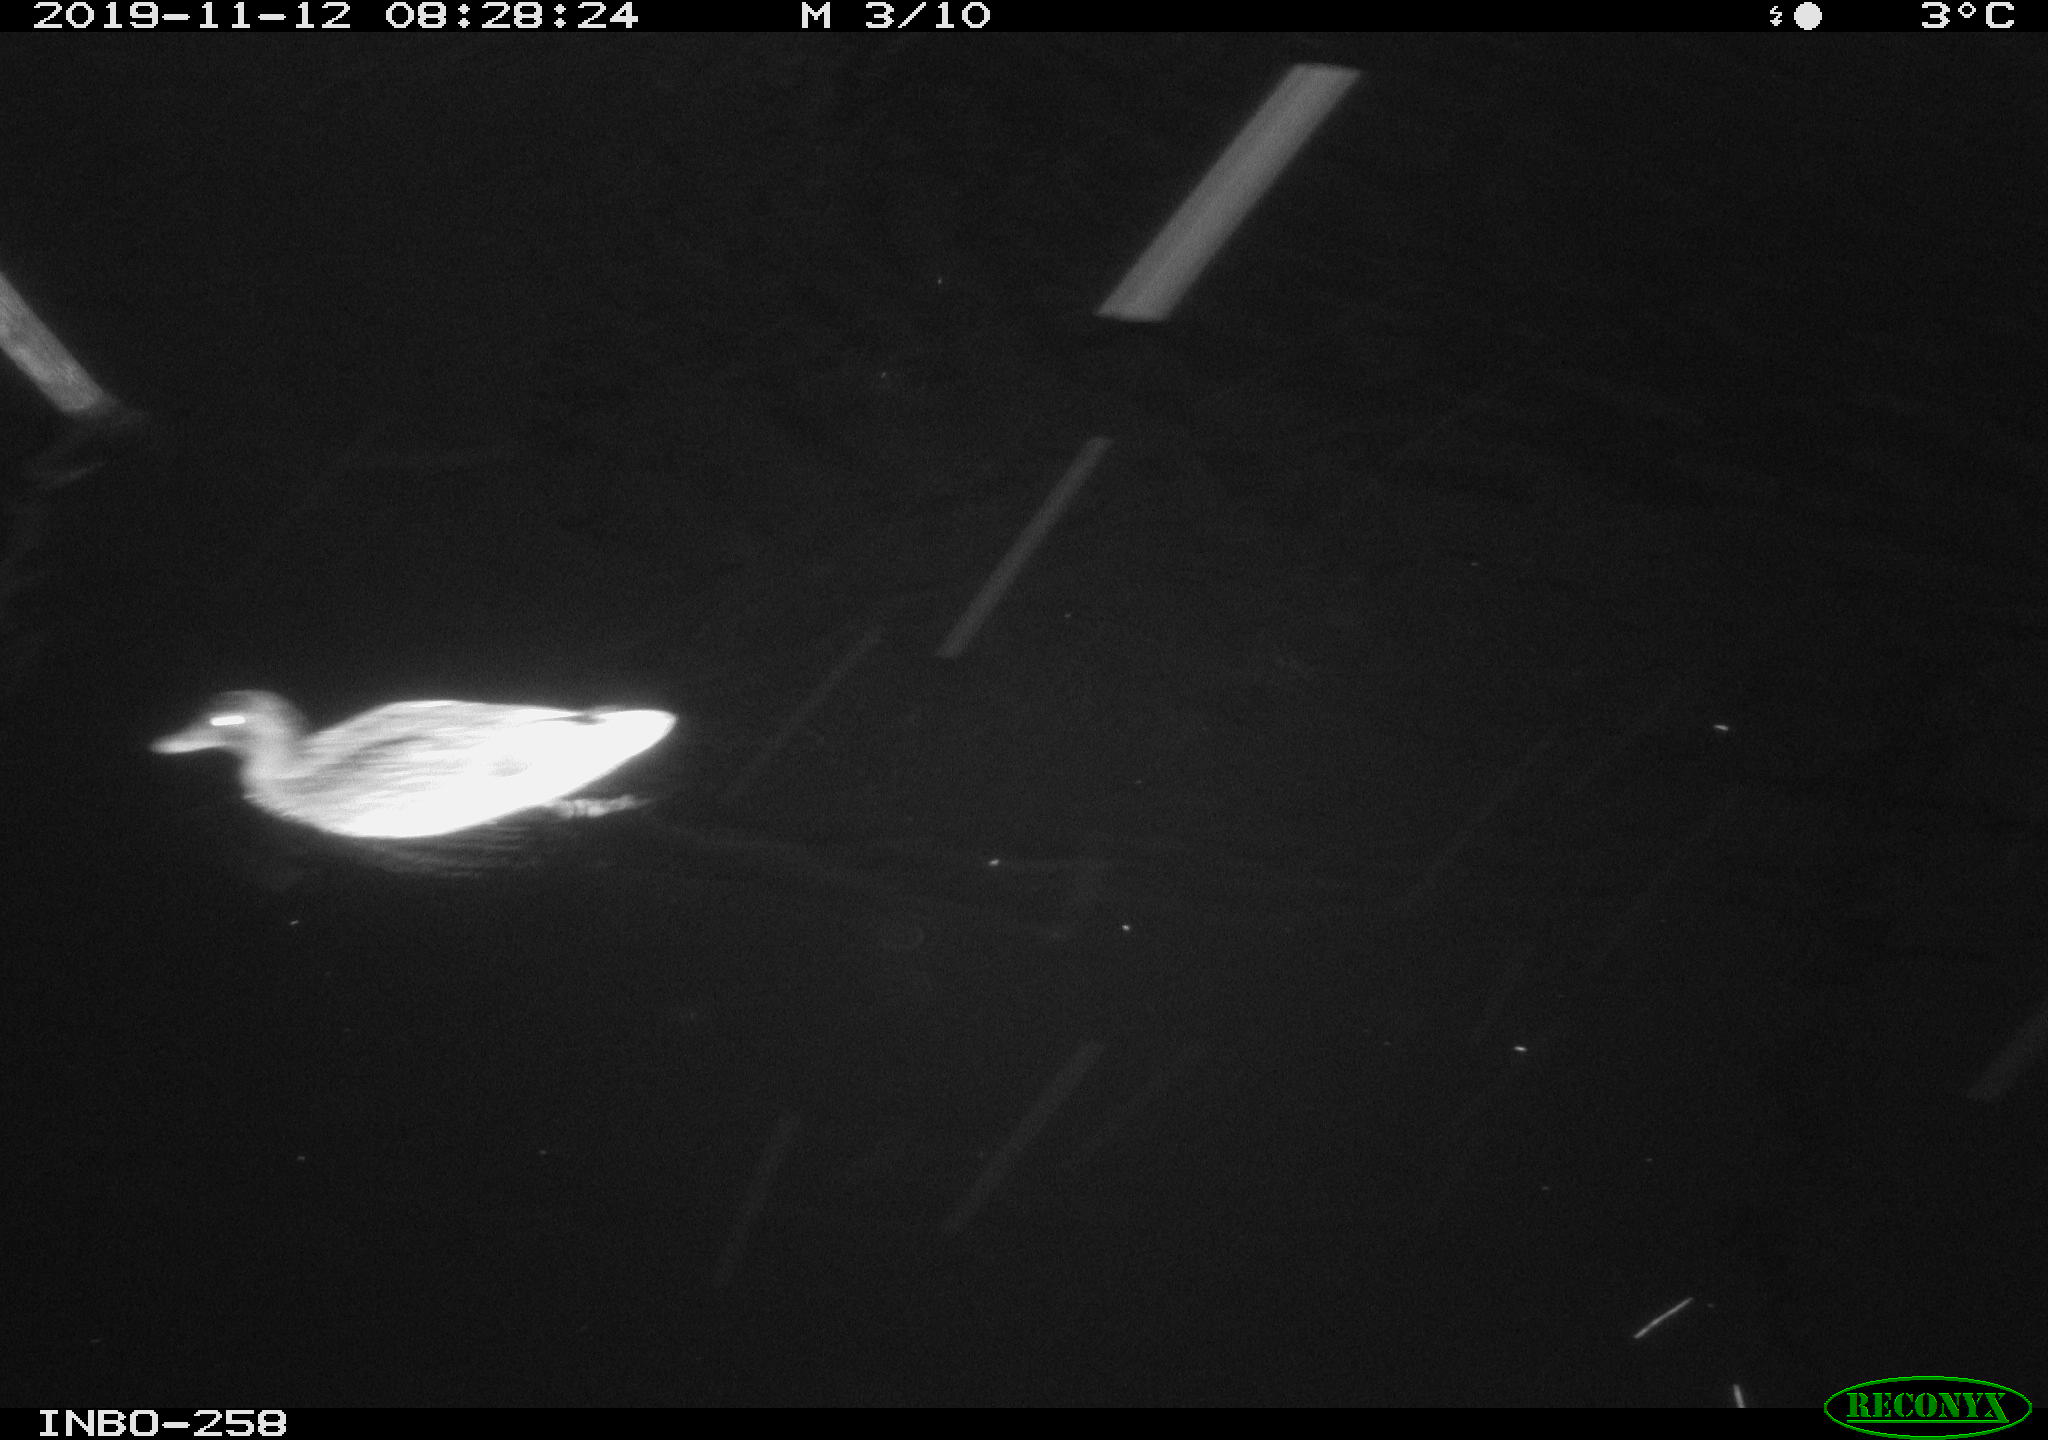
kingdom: Animalia
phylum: Chordata
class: Aves
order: Anseriformes
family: Anatidae
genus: Anas
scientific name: Anas platyrhynchos
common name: Mallard
